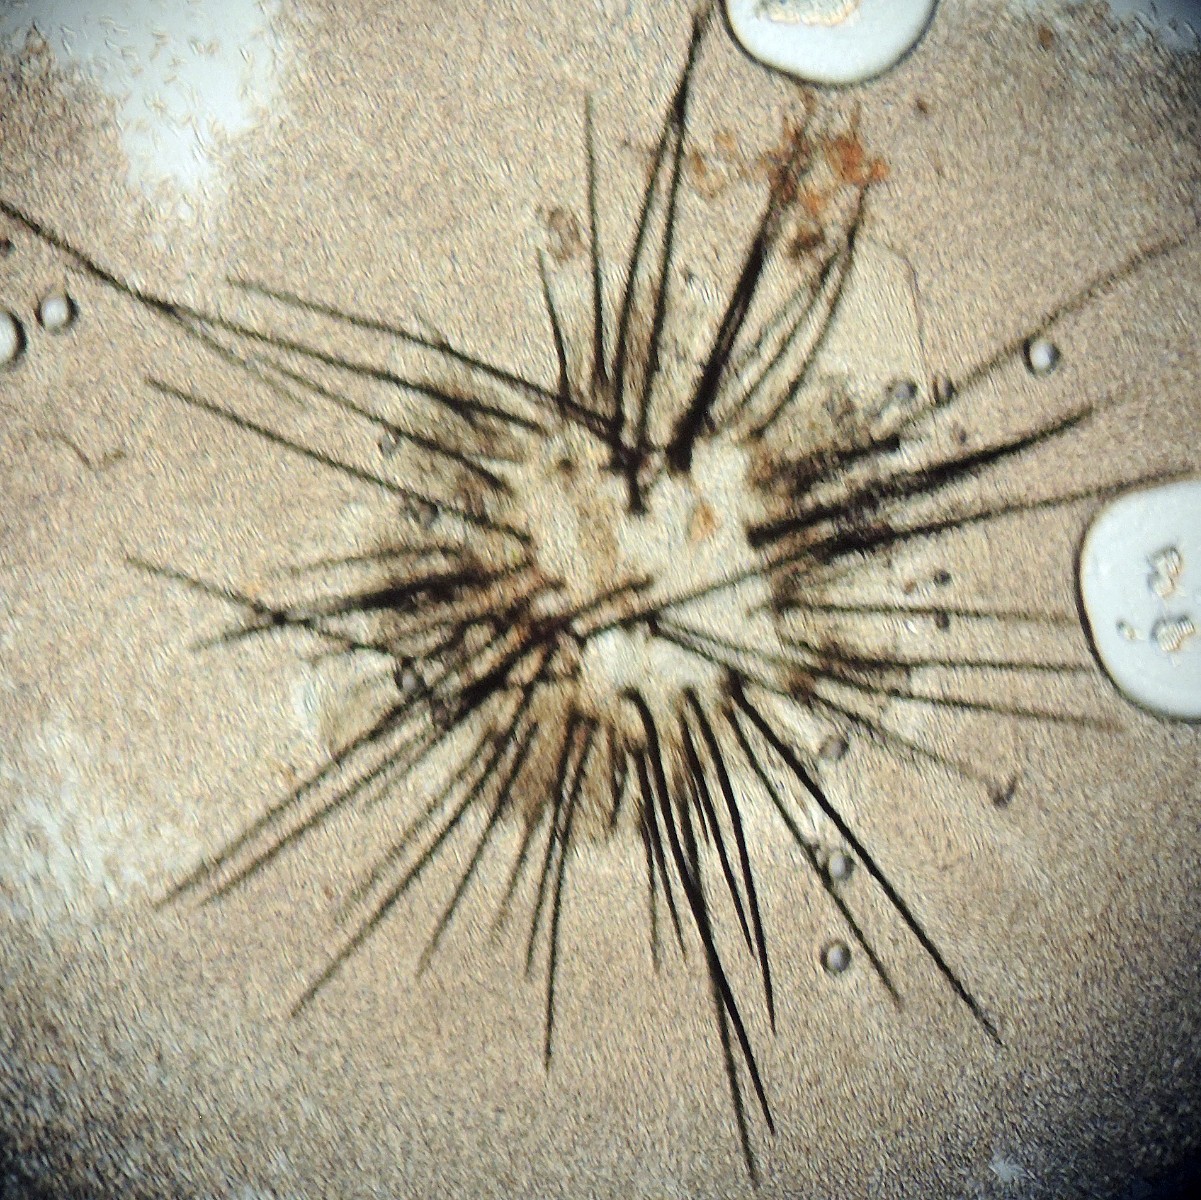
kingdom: Fungi
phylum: Ascomycota
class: Sordariomycetes
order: Phomatosporales
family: Phomatosporaceae
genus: Phomatospora
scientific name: Phomatospora dinemasporium
